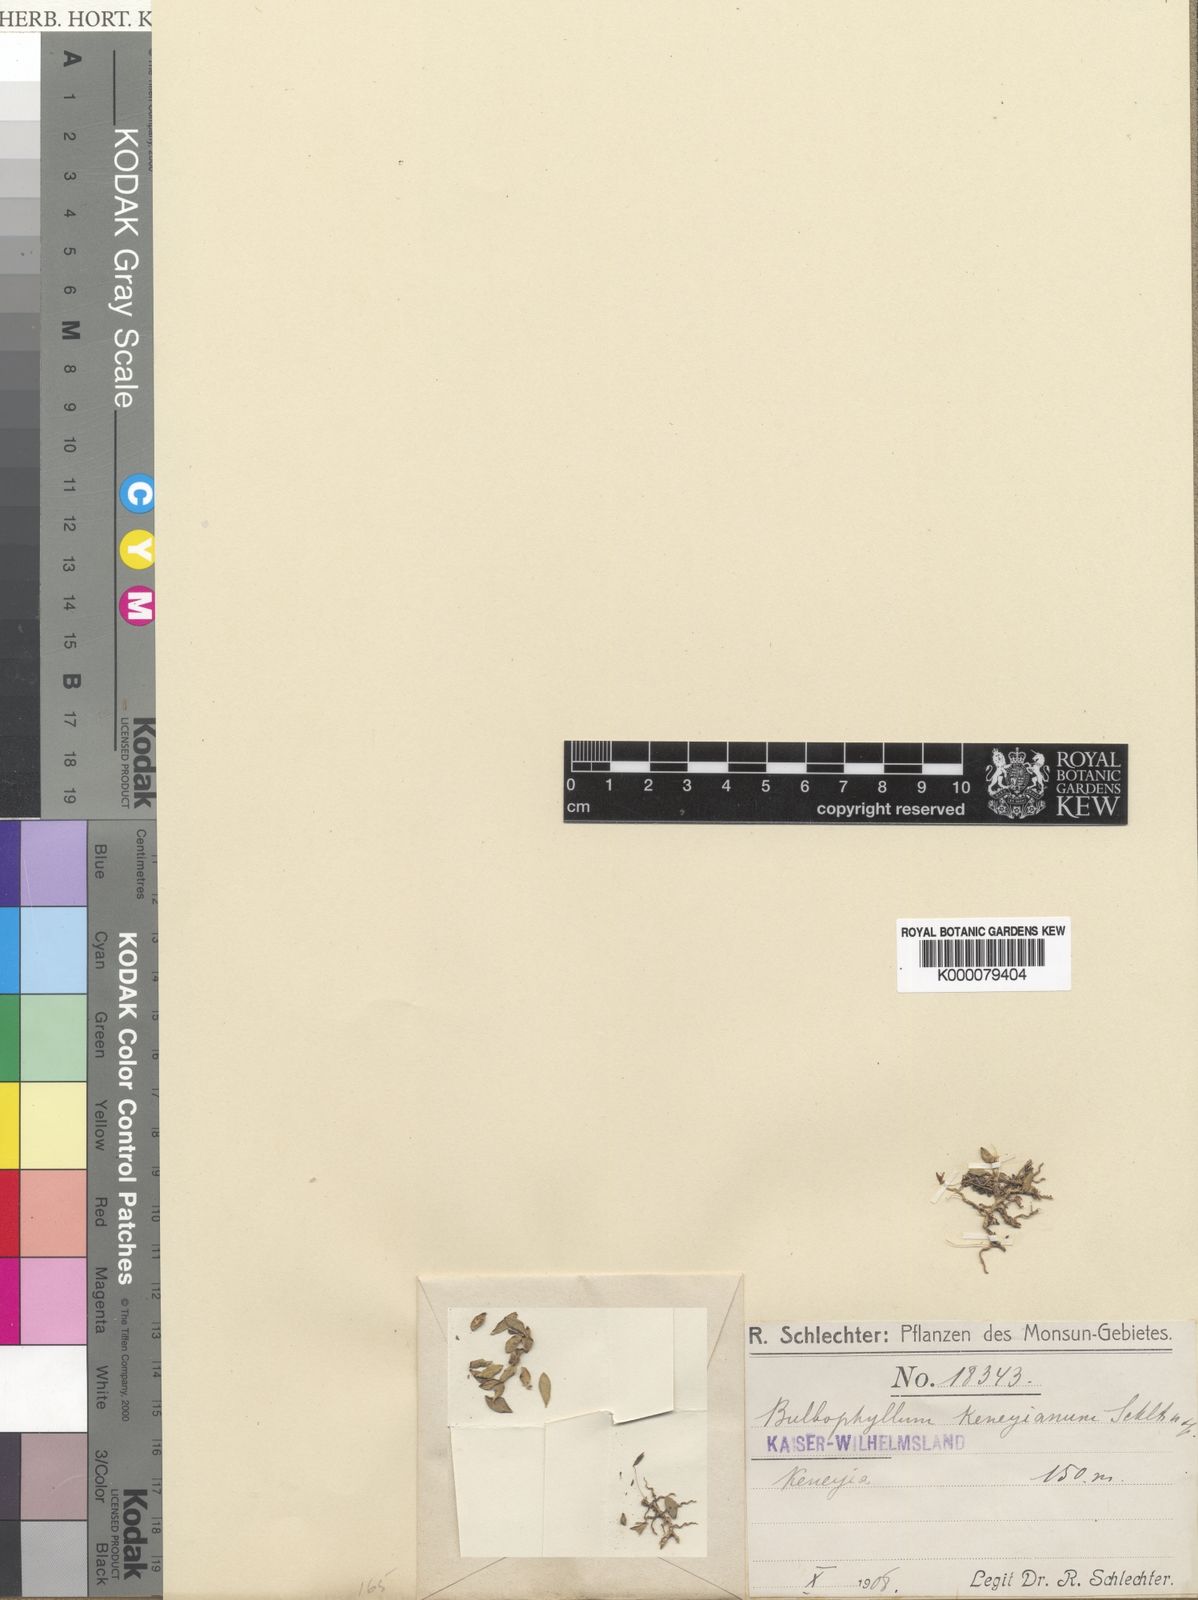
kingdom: Plantae
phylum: Tracheophyta
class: Liliopsida
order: Asparagales
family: Orchidaceae
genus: Bulbophyllum
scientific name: Bulbophyllum longiflorum
